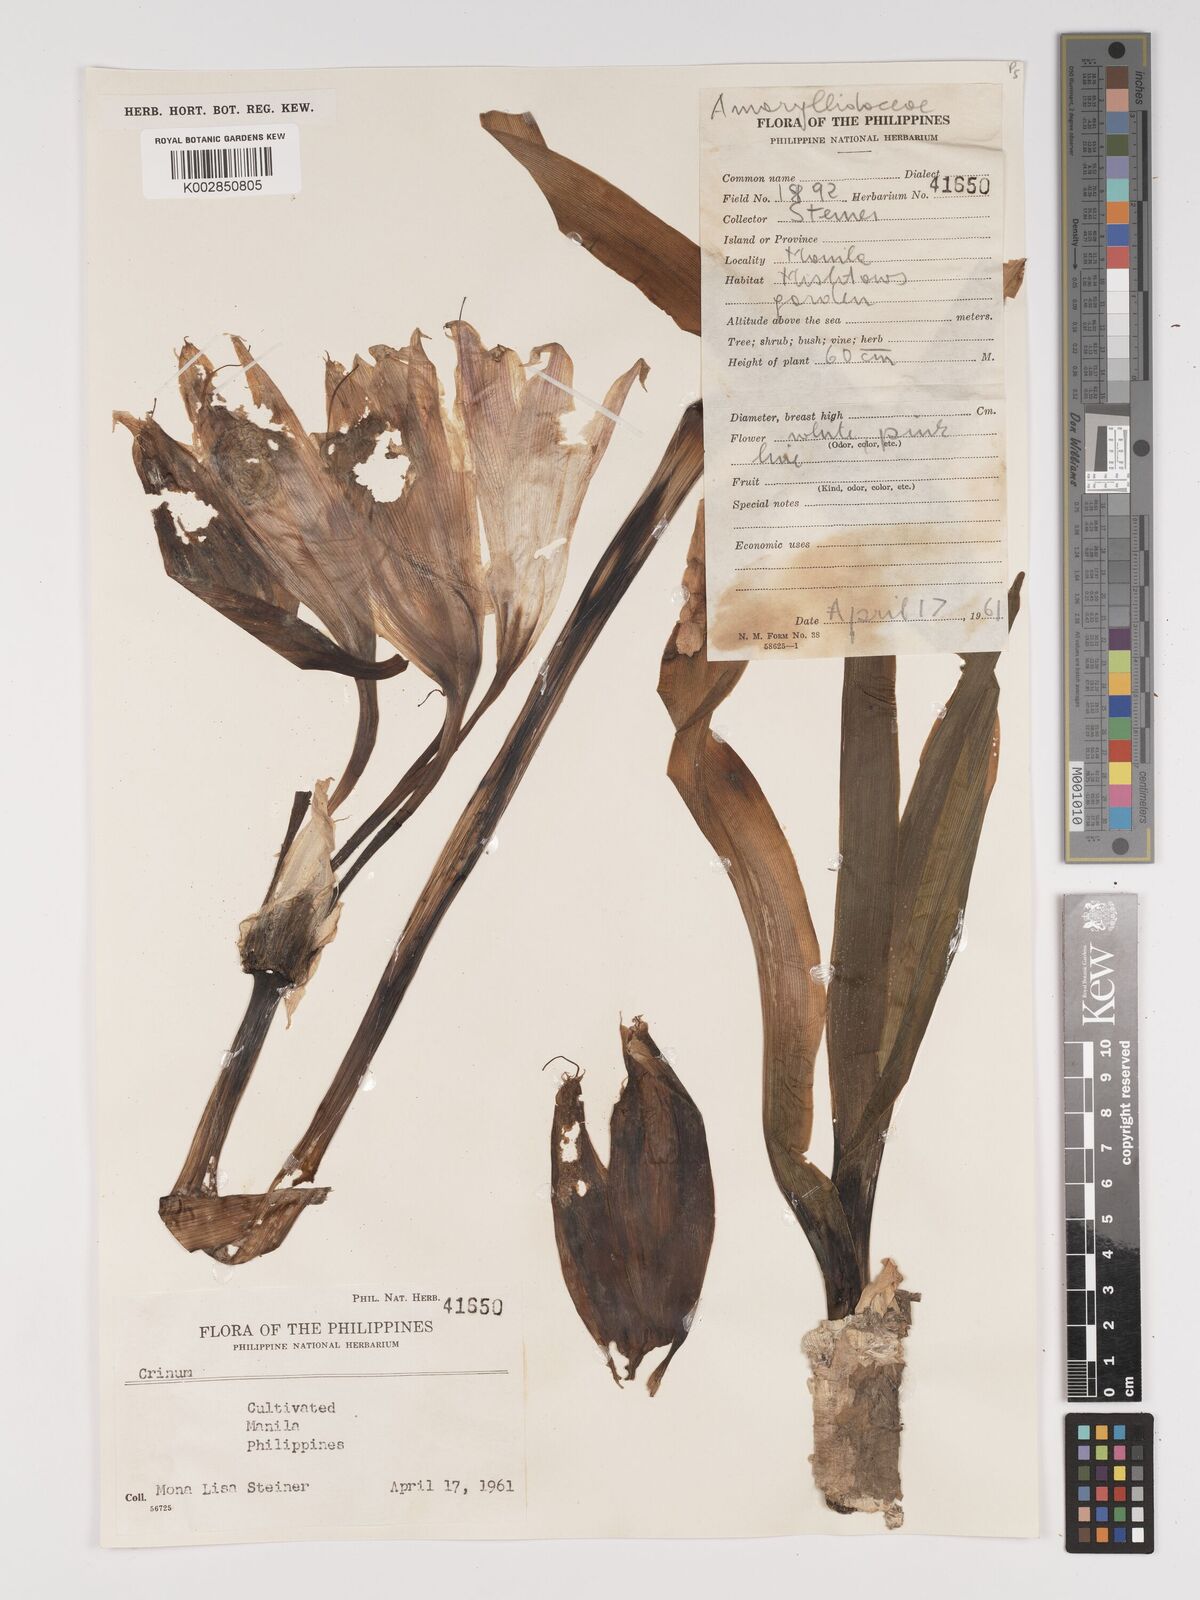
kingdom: Plantae
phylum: Tracheophyta
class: Liliopsida
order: Asparagales
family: Amaryllidaceae
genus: Crinum
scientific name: Crinum
